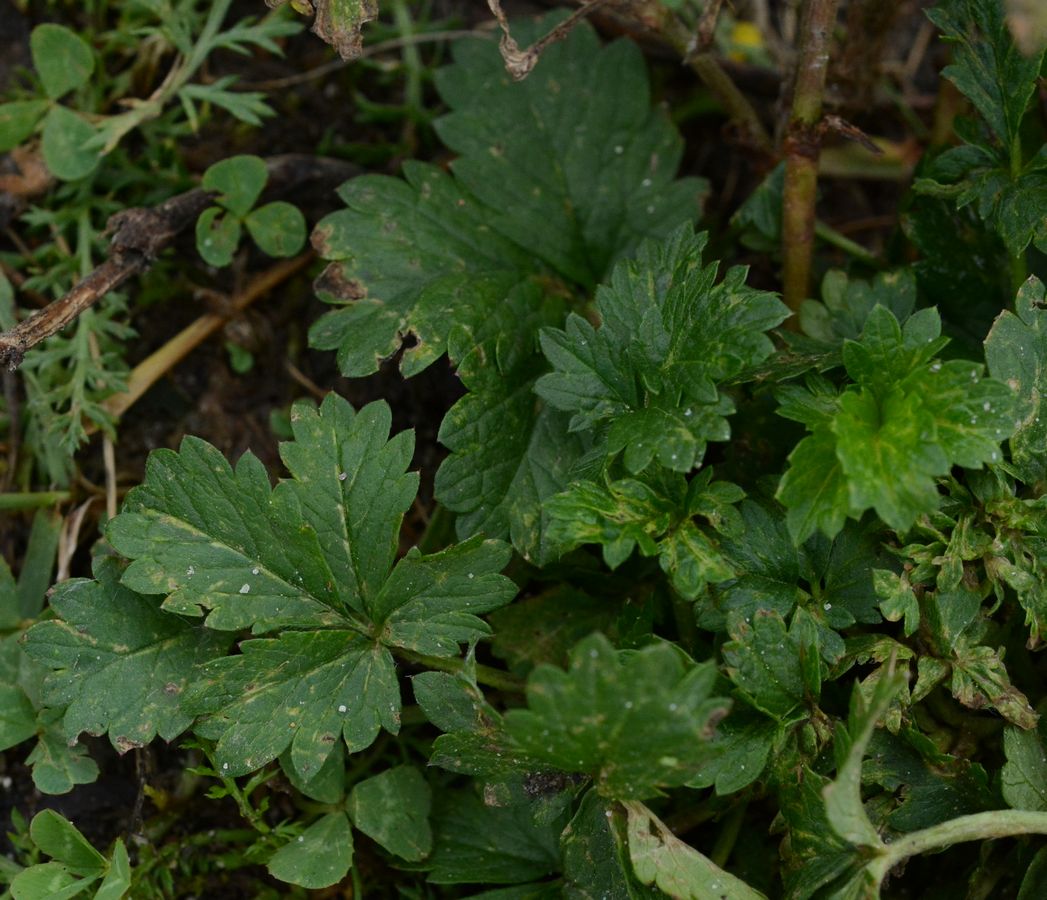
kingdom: Plantae
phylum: Tracheophyta
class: Magnoliopsida
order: Rosales
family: Rosaceae
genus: Potentilla
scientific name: Potentilla intermedia
